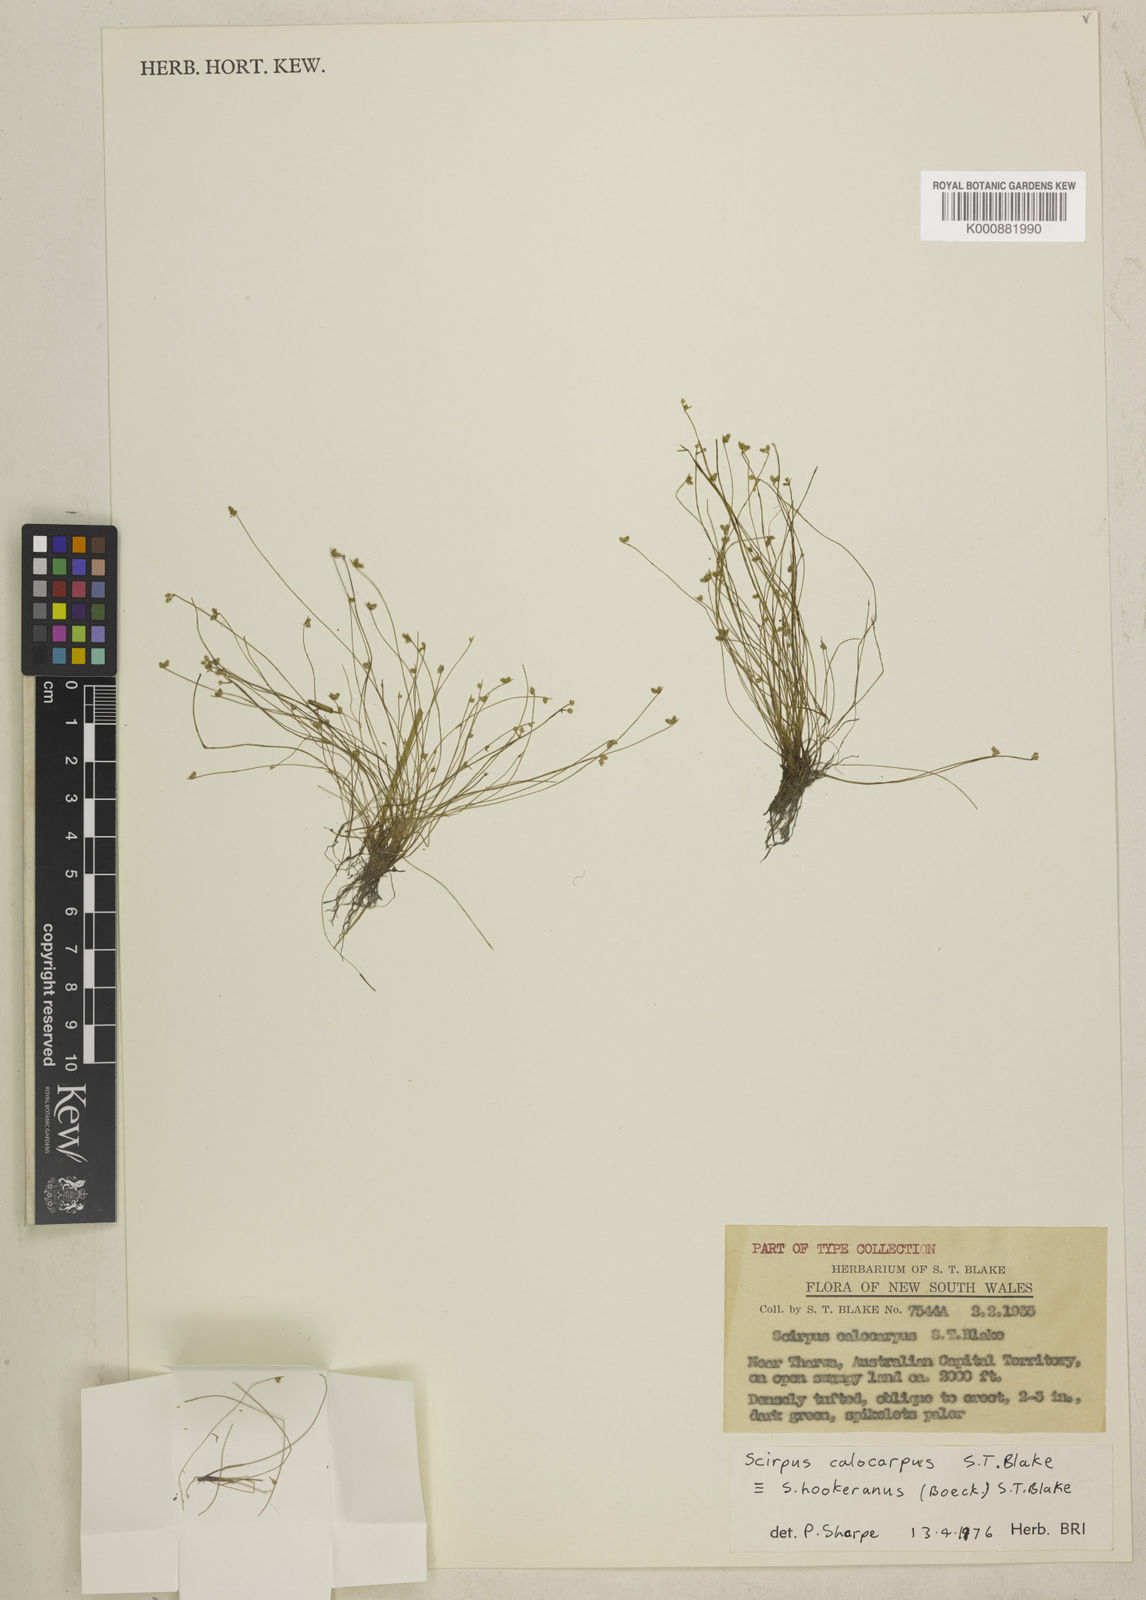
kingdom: Plantae
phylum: Tracheophyta
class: Liliopsida
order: Poales
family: Cyperaceae
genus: Isolepis
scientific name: Isolepis multicaulis
